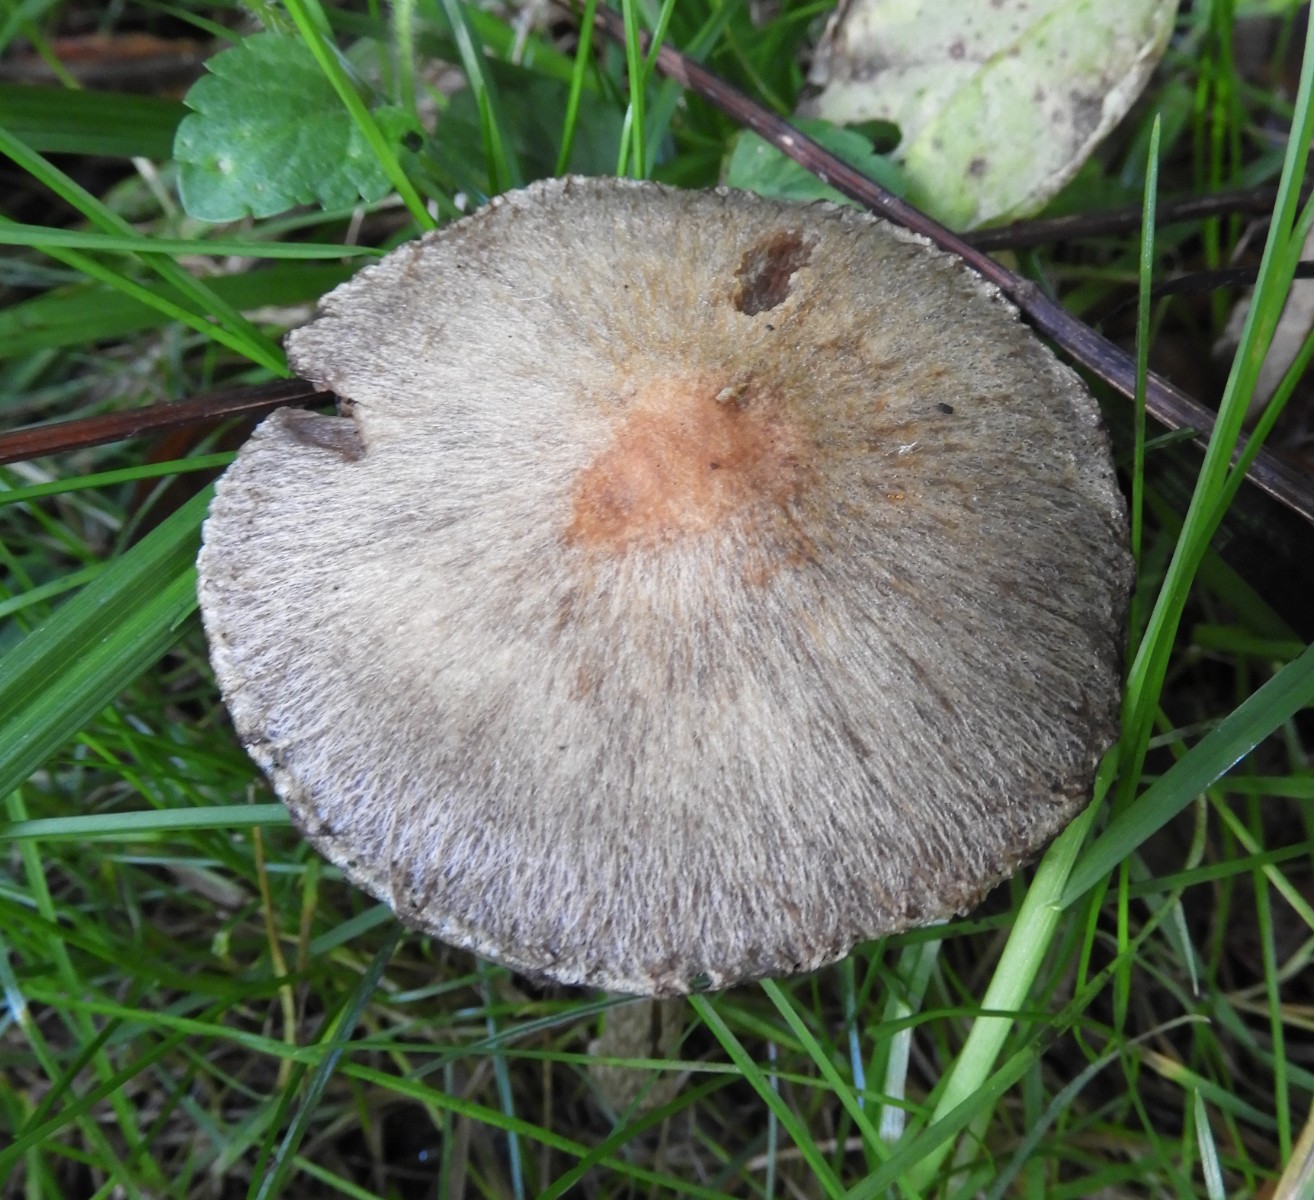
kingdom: Fungi
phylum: Basidiomycota
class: Agaricomycetes
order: Agaricales
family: Psathyrellaceae
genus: Lacrymaria
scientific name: Lacrymaria lacrymabunda
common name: grædende mørkhat
